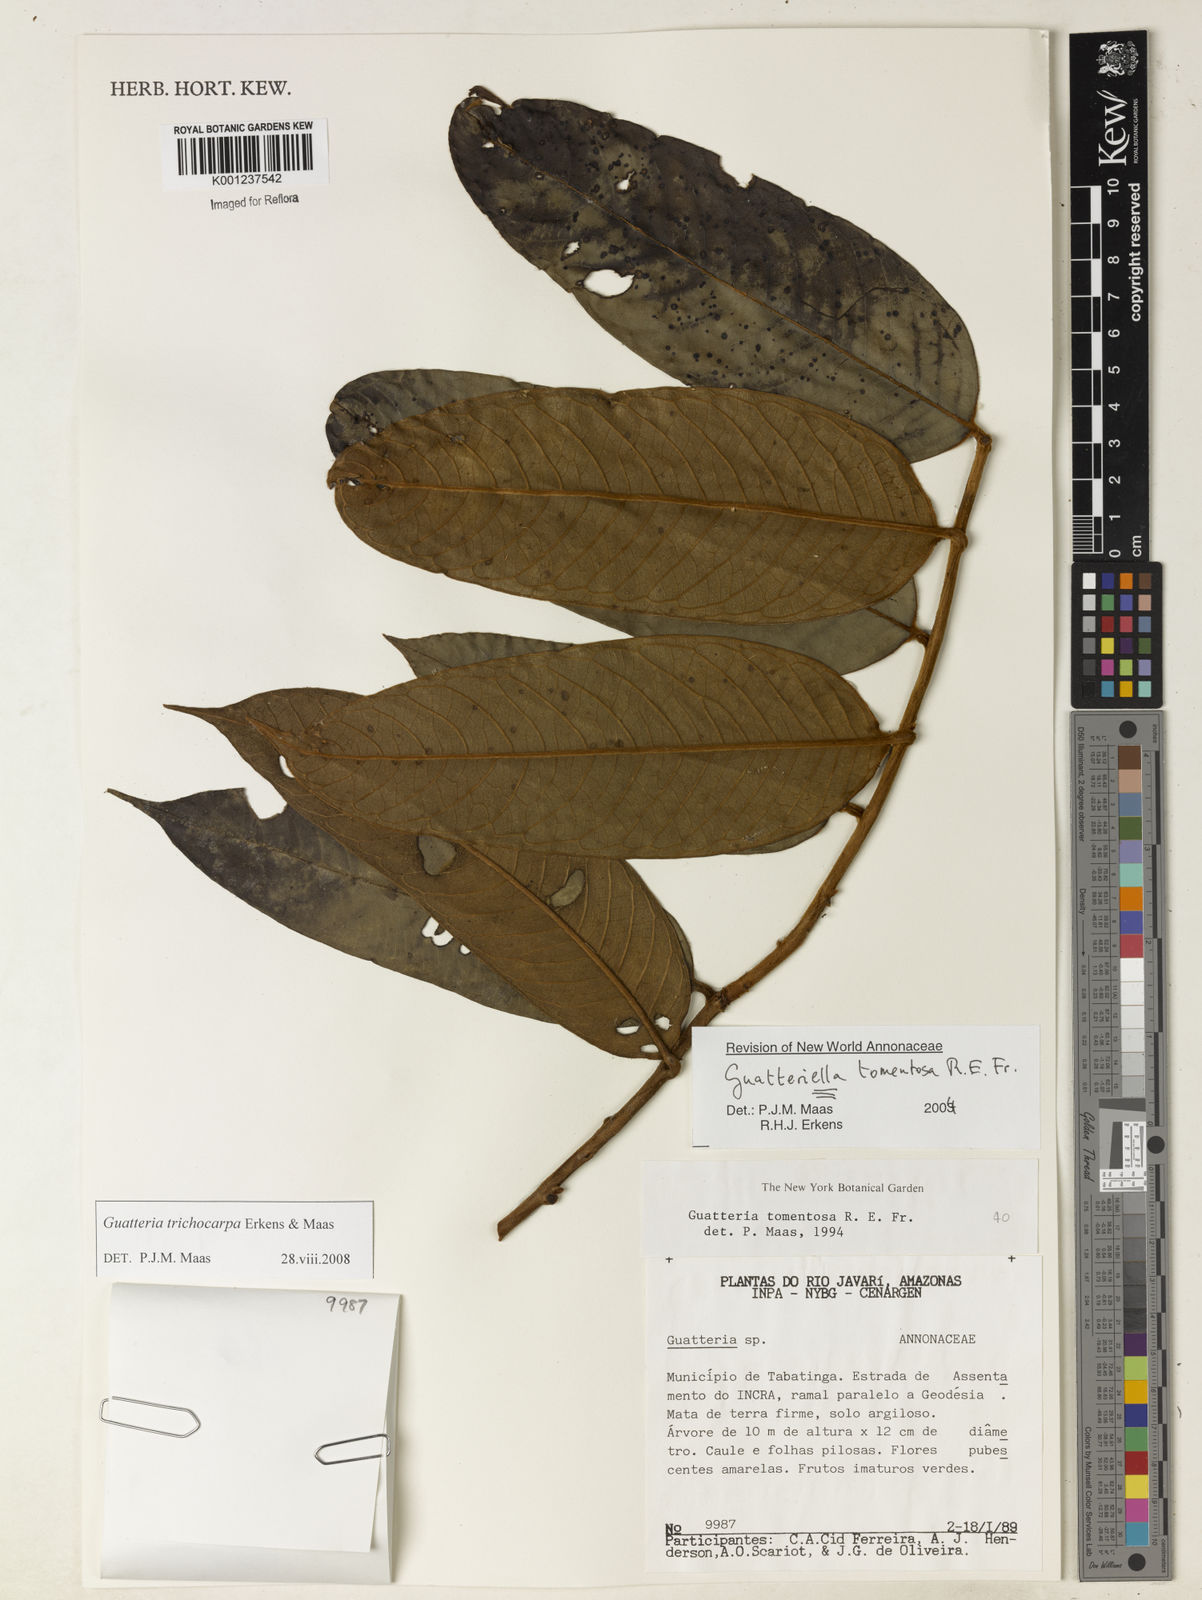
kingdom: Plantae
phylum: Tracheophyta
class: Magnoliopsida
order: Magnoliales
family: Annonaceae
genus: Guatteria
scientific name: Guatteria trichocarpa
